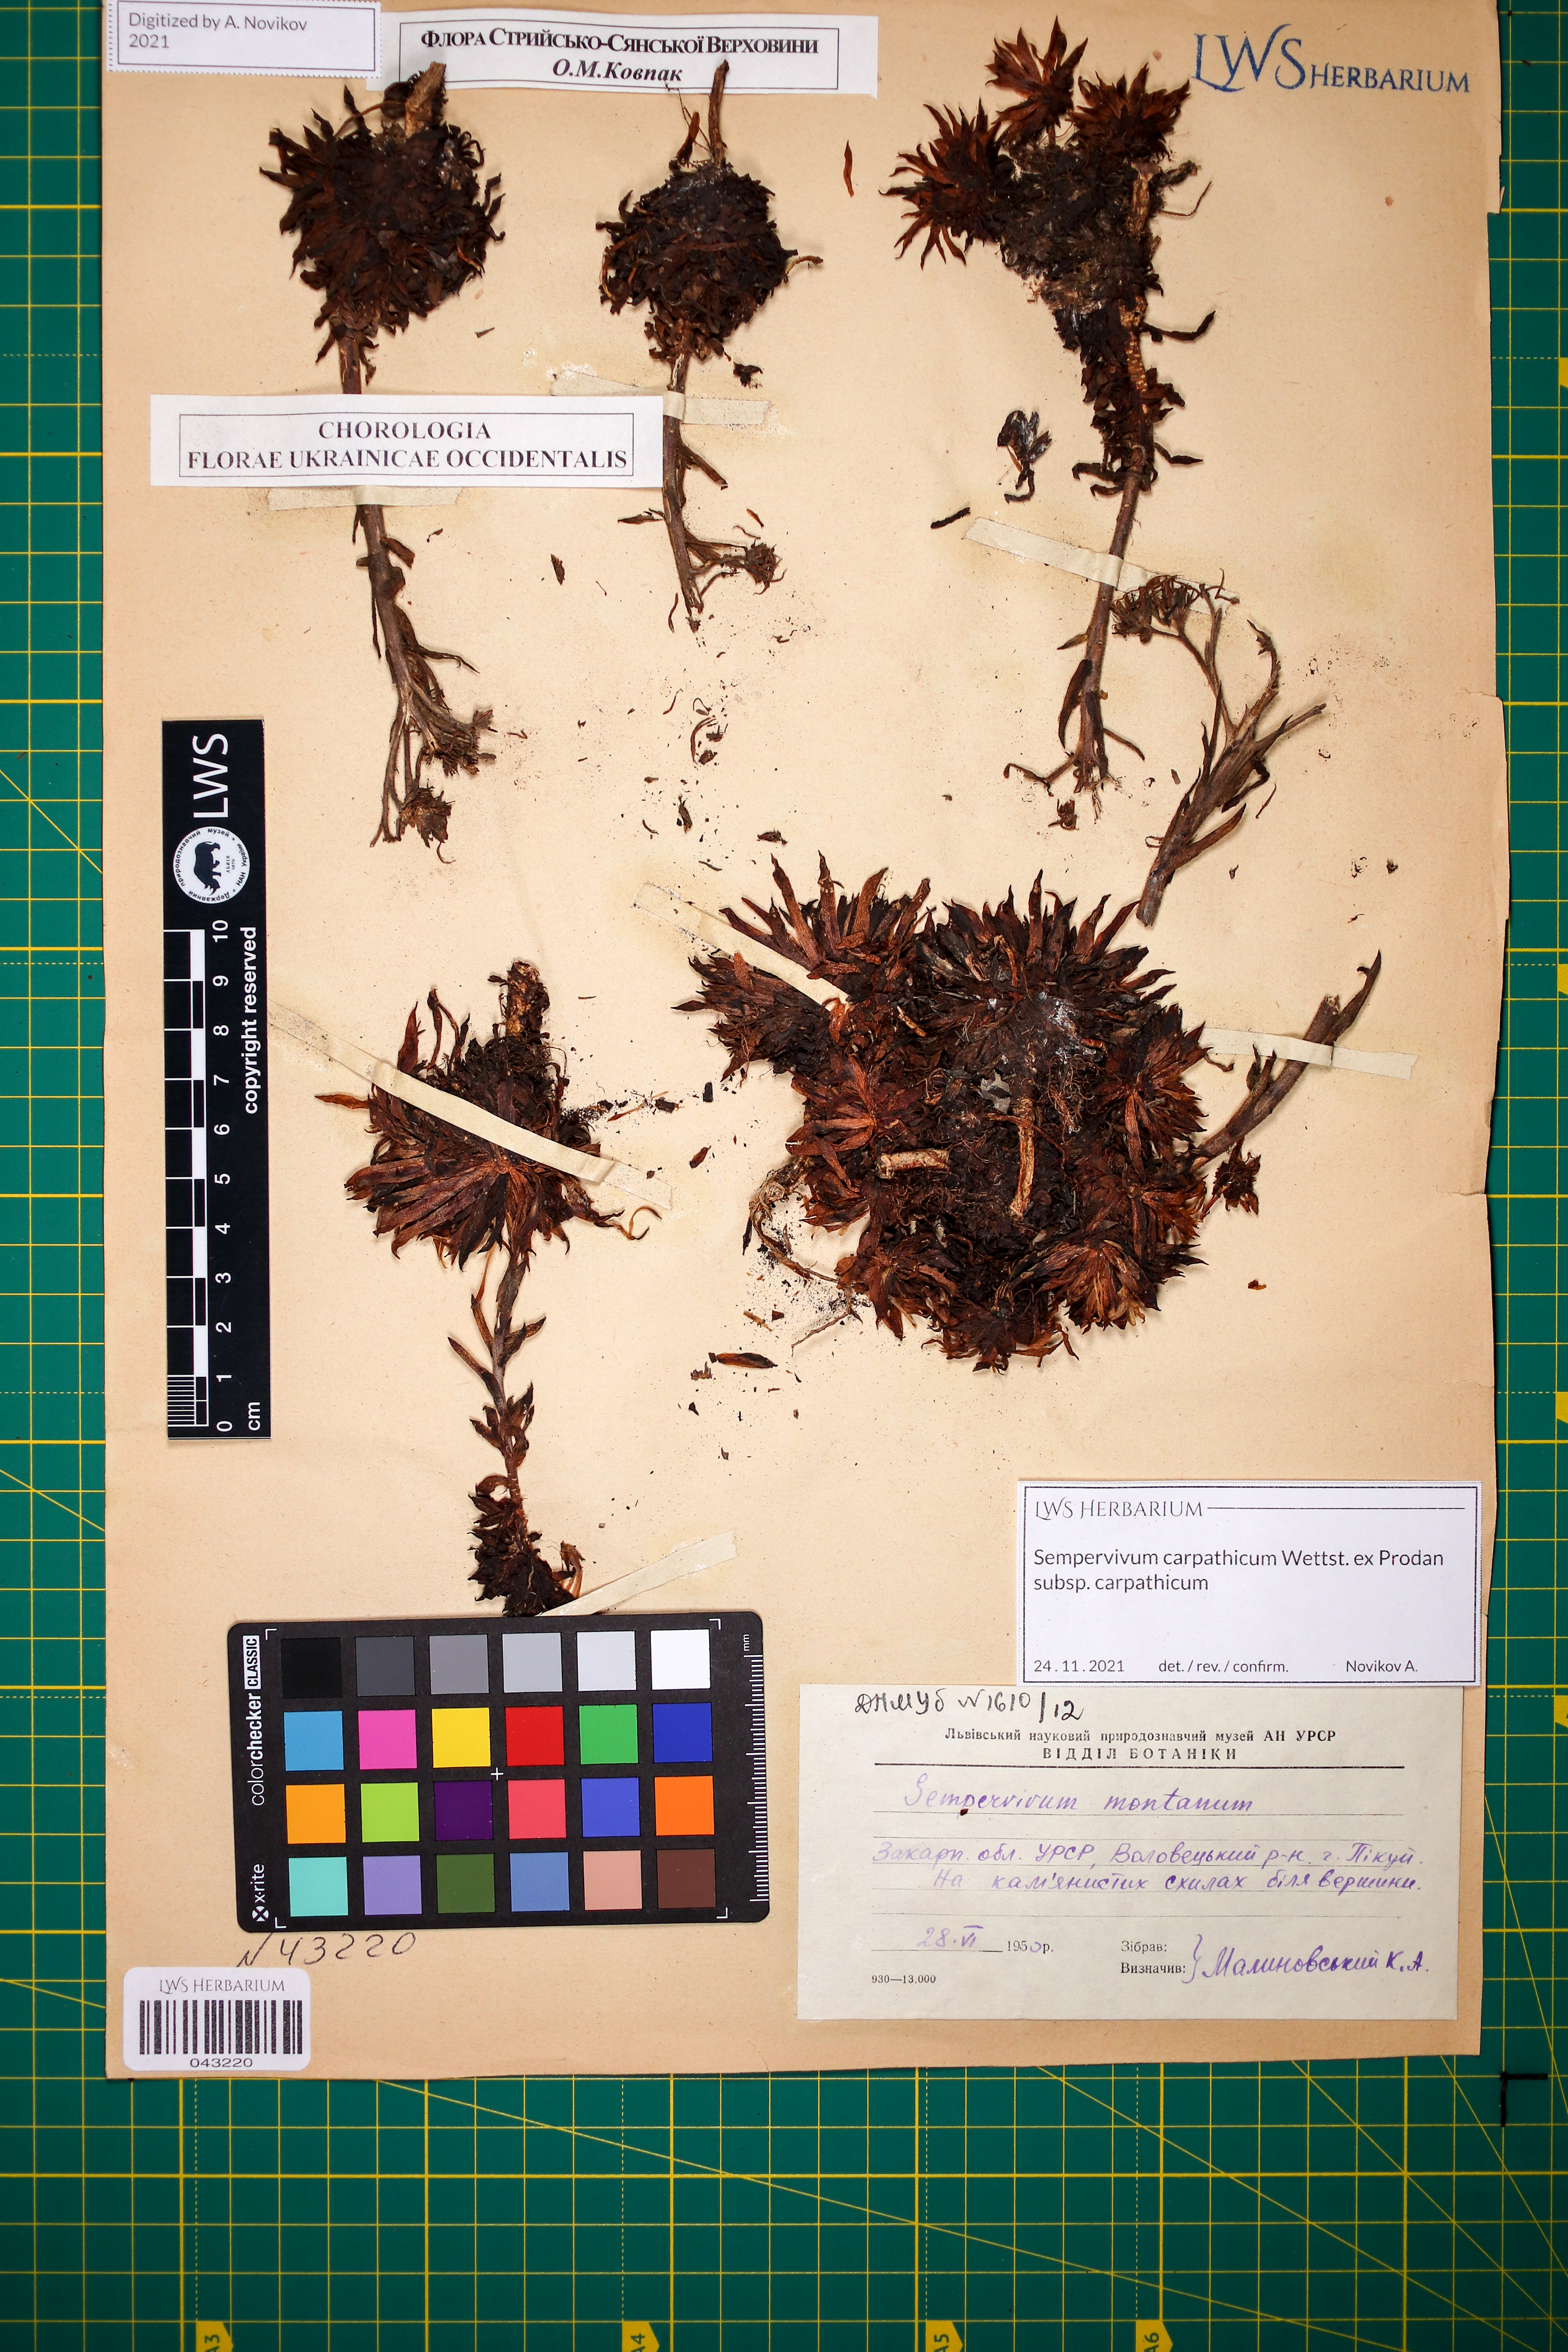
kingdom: Plantae
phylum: Tracheophyta
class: Magnoliopsida
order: Saxifragales
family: Crassulaceae
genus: Sempervivum
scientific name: Sempervivum montanum
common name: Mountain house-leek
